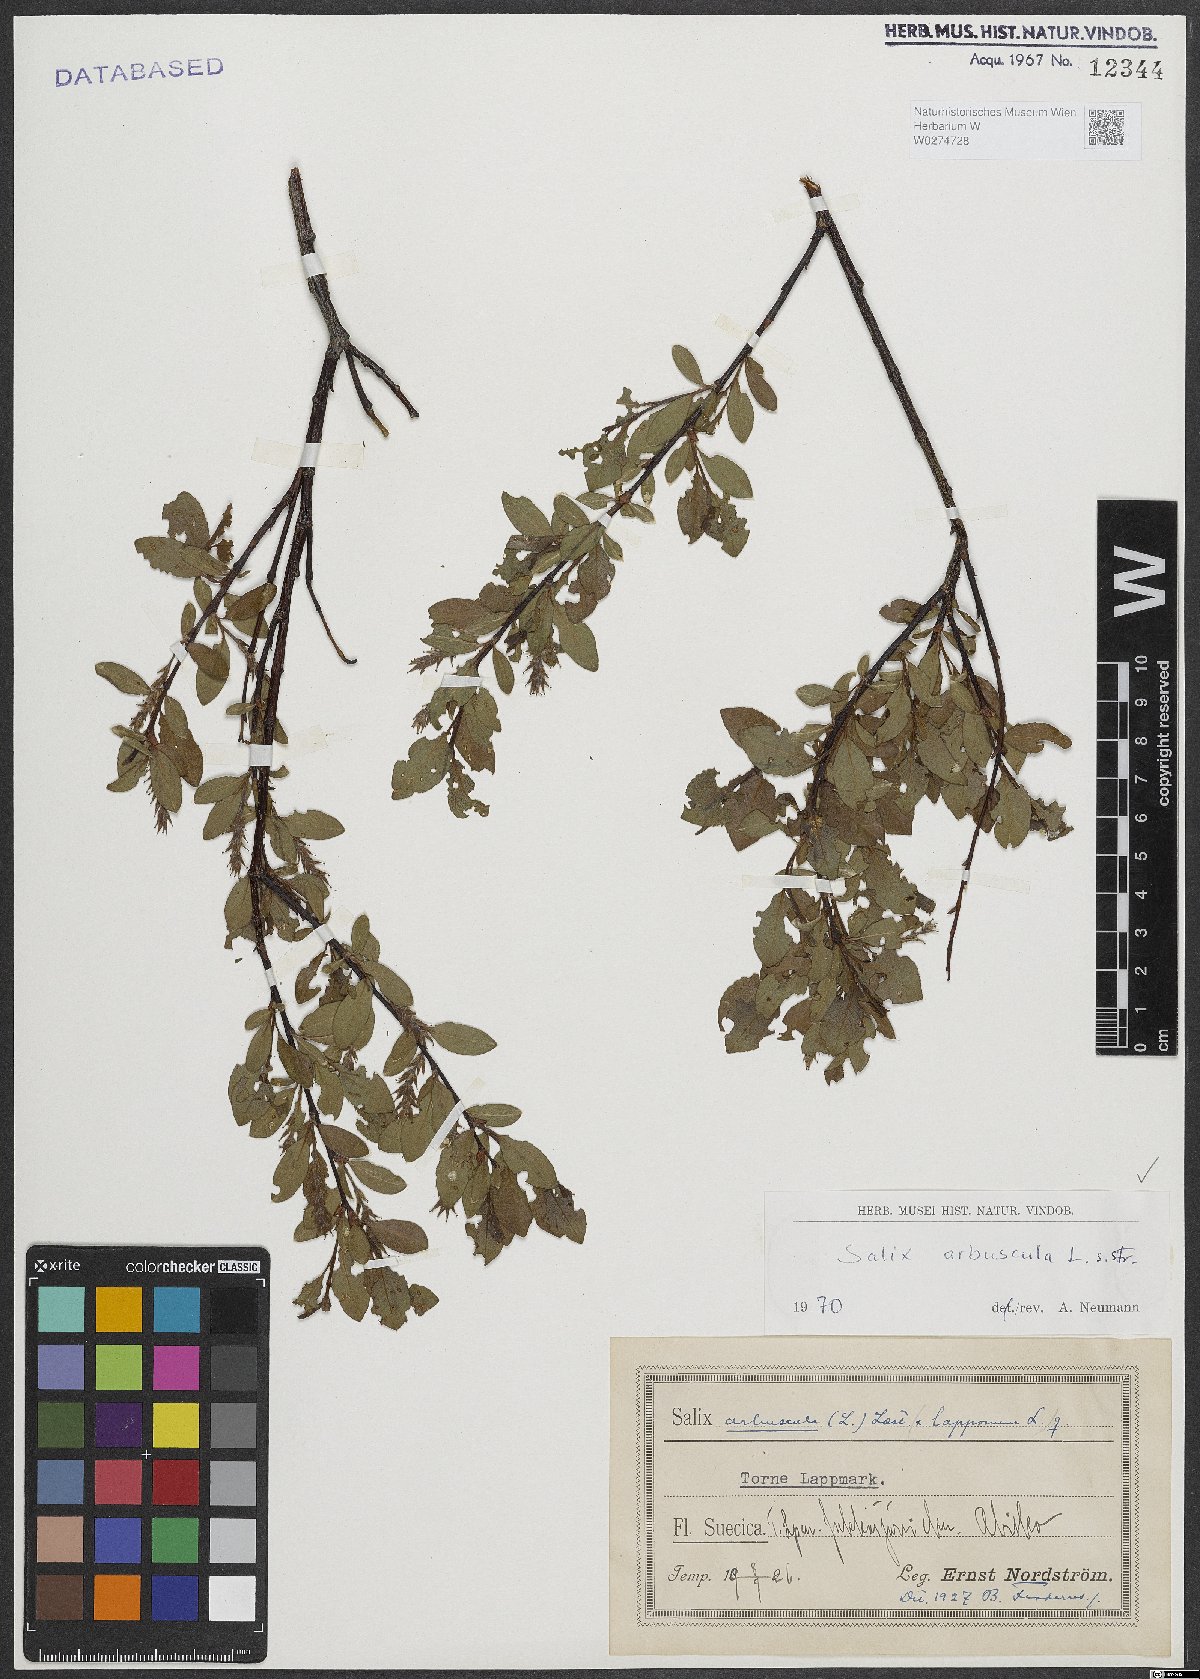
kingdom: Plantae
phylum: Tracheophyta
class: Magnoliopsida
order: Malpighiales
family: Salicaceae
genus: Salix
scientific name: Salix arbuscula
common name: Mountain willow
